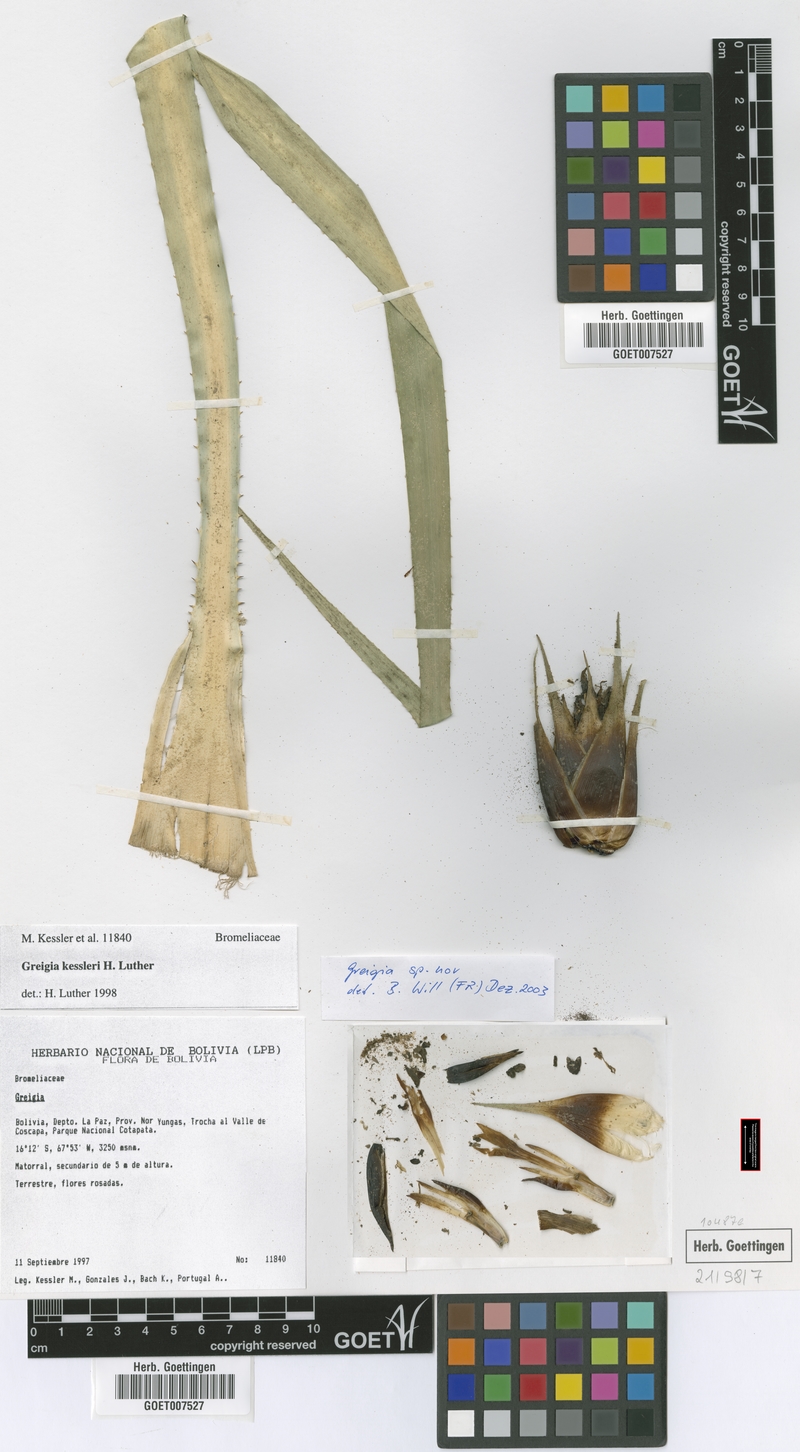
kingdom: Plantae
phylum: Tracheophyta
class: Liliopsida
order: Poales
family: Bromeliaceae
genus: Greigia
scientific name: Greigia membranacea
